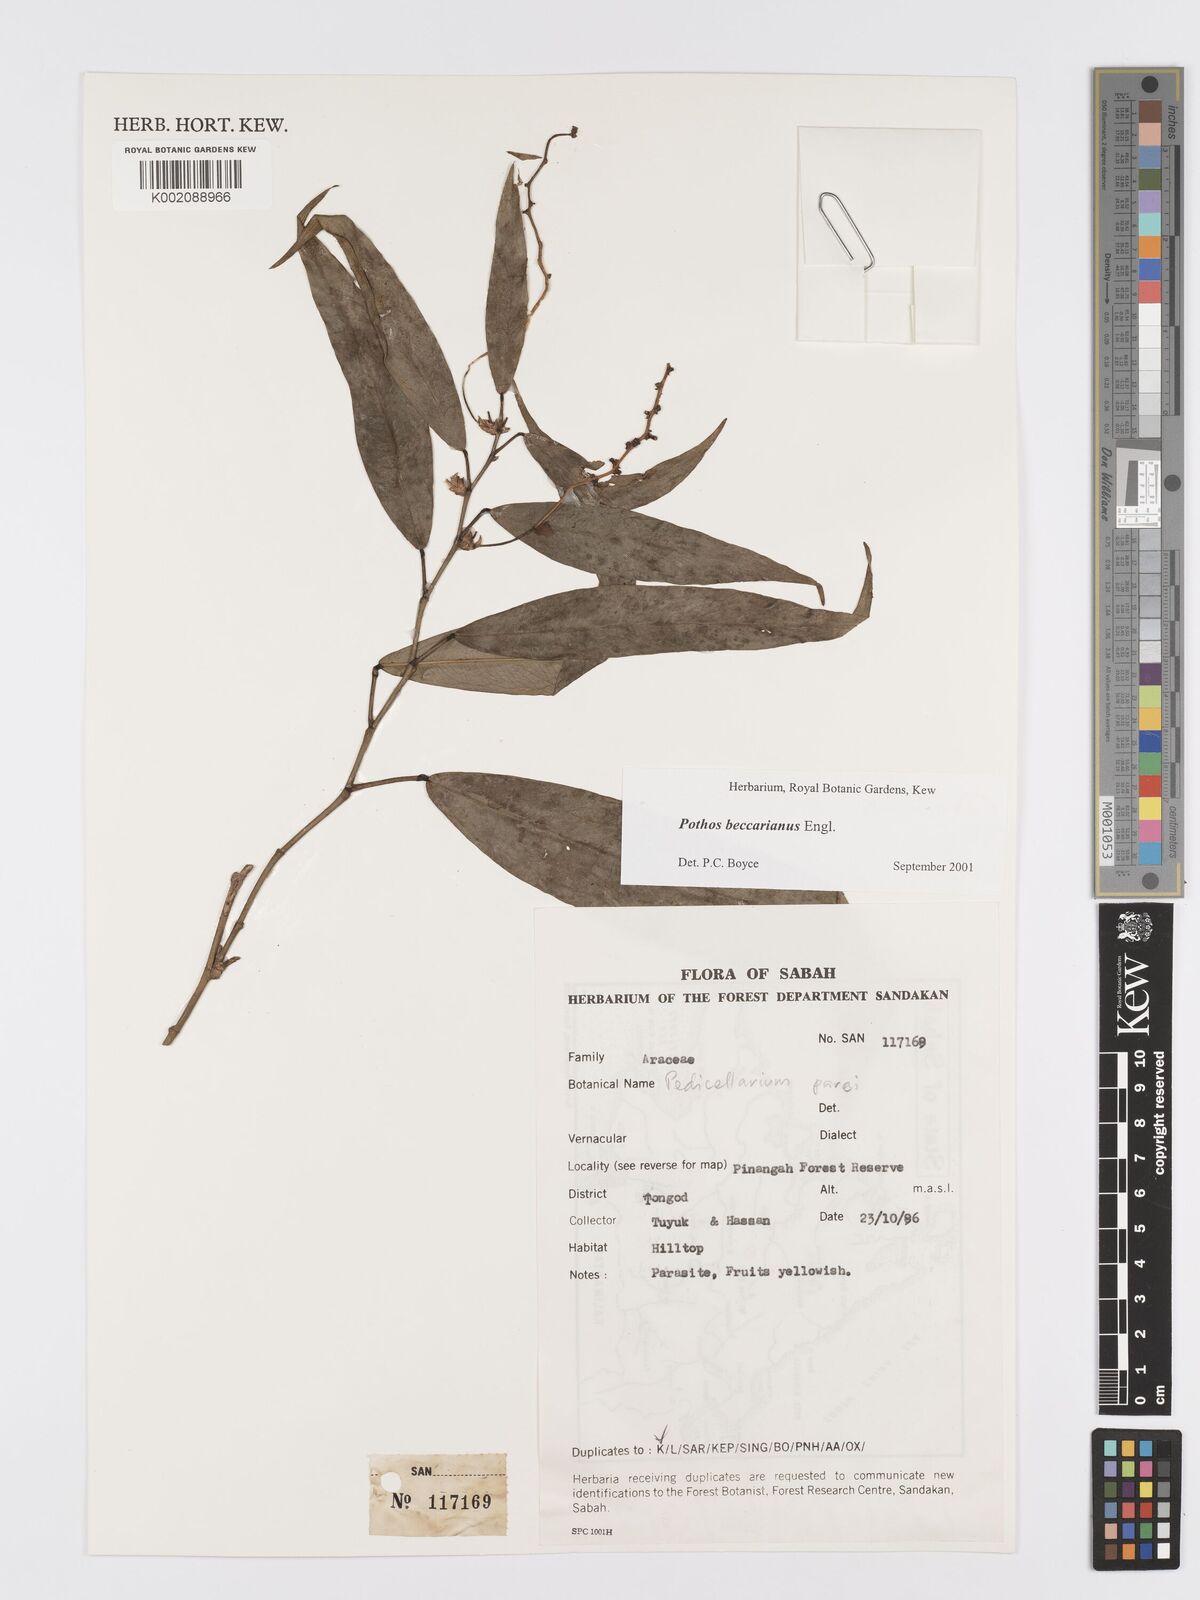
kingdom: Plantae
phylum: Tracheophyta
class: Liliopsida
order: Alismatales
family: Araceae
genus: Pothos
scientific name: Pothos beccarianus
